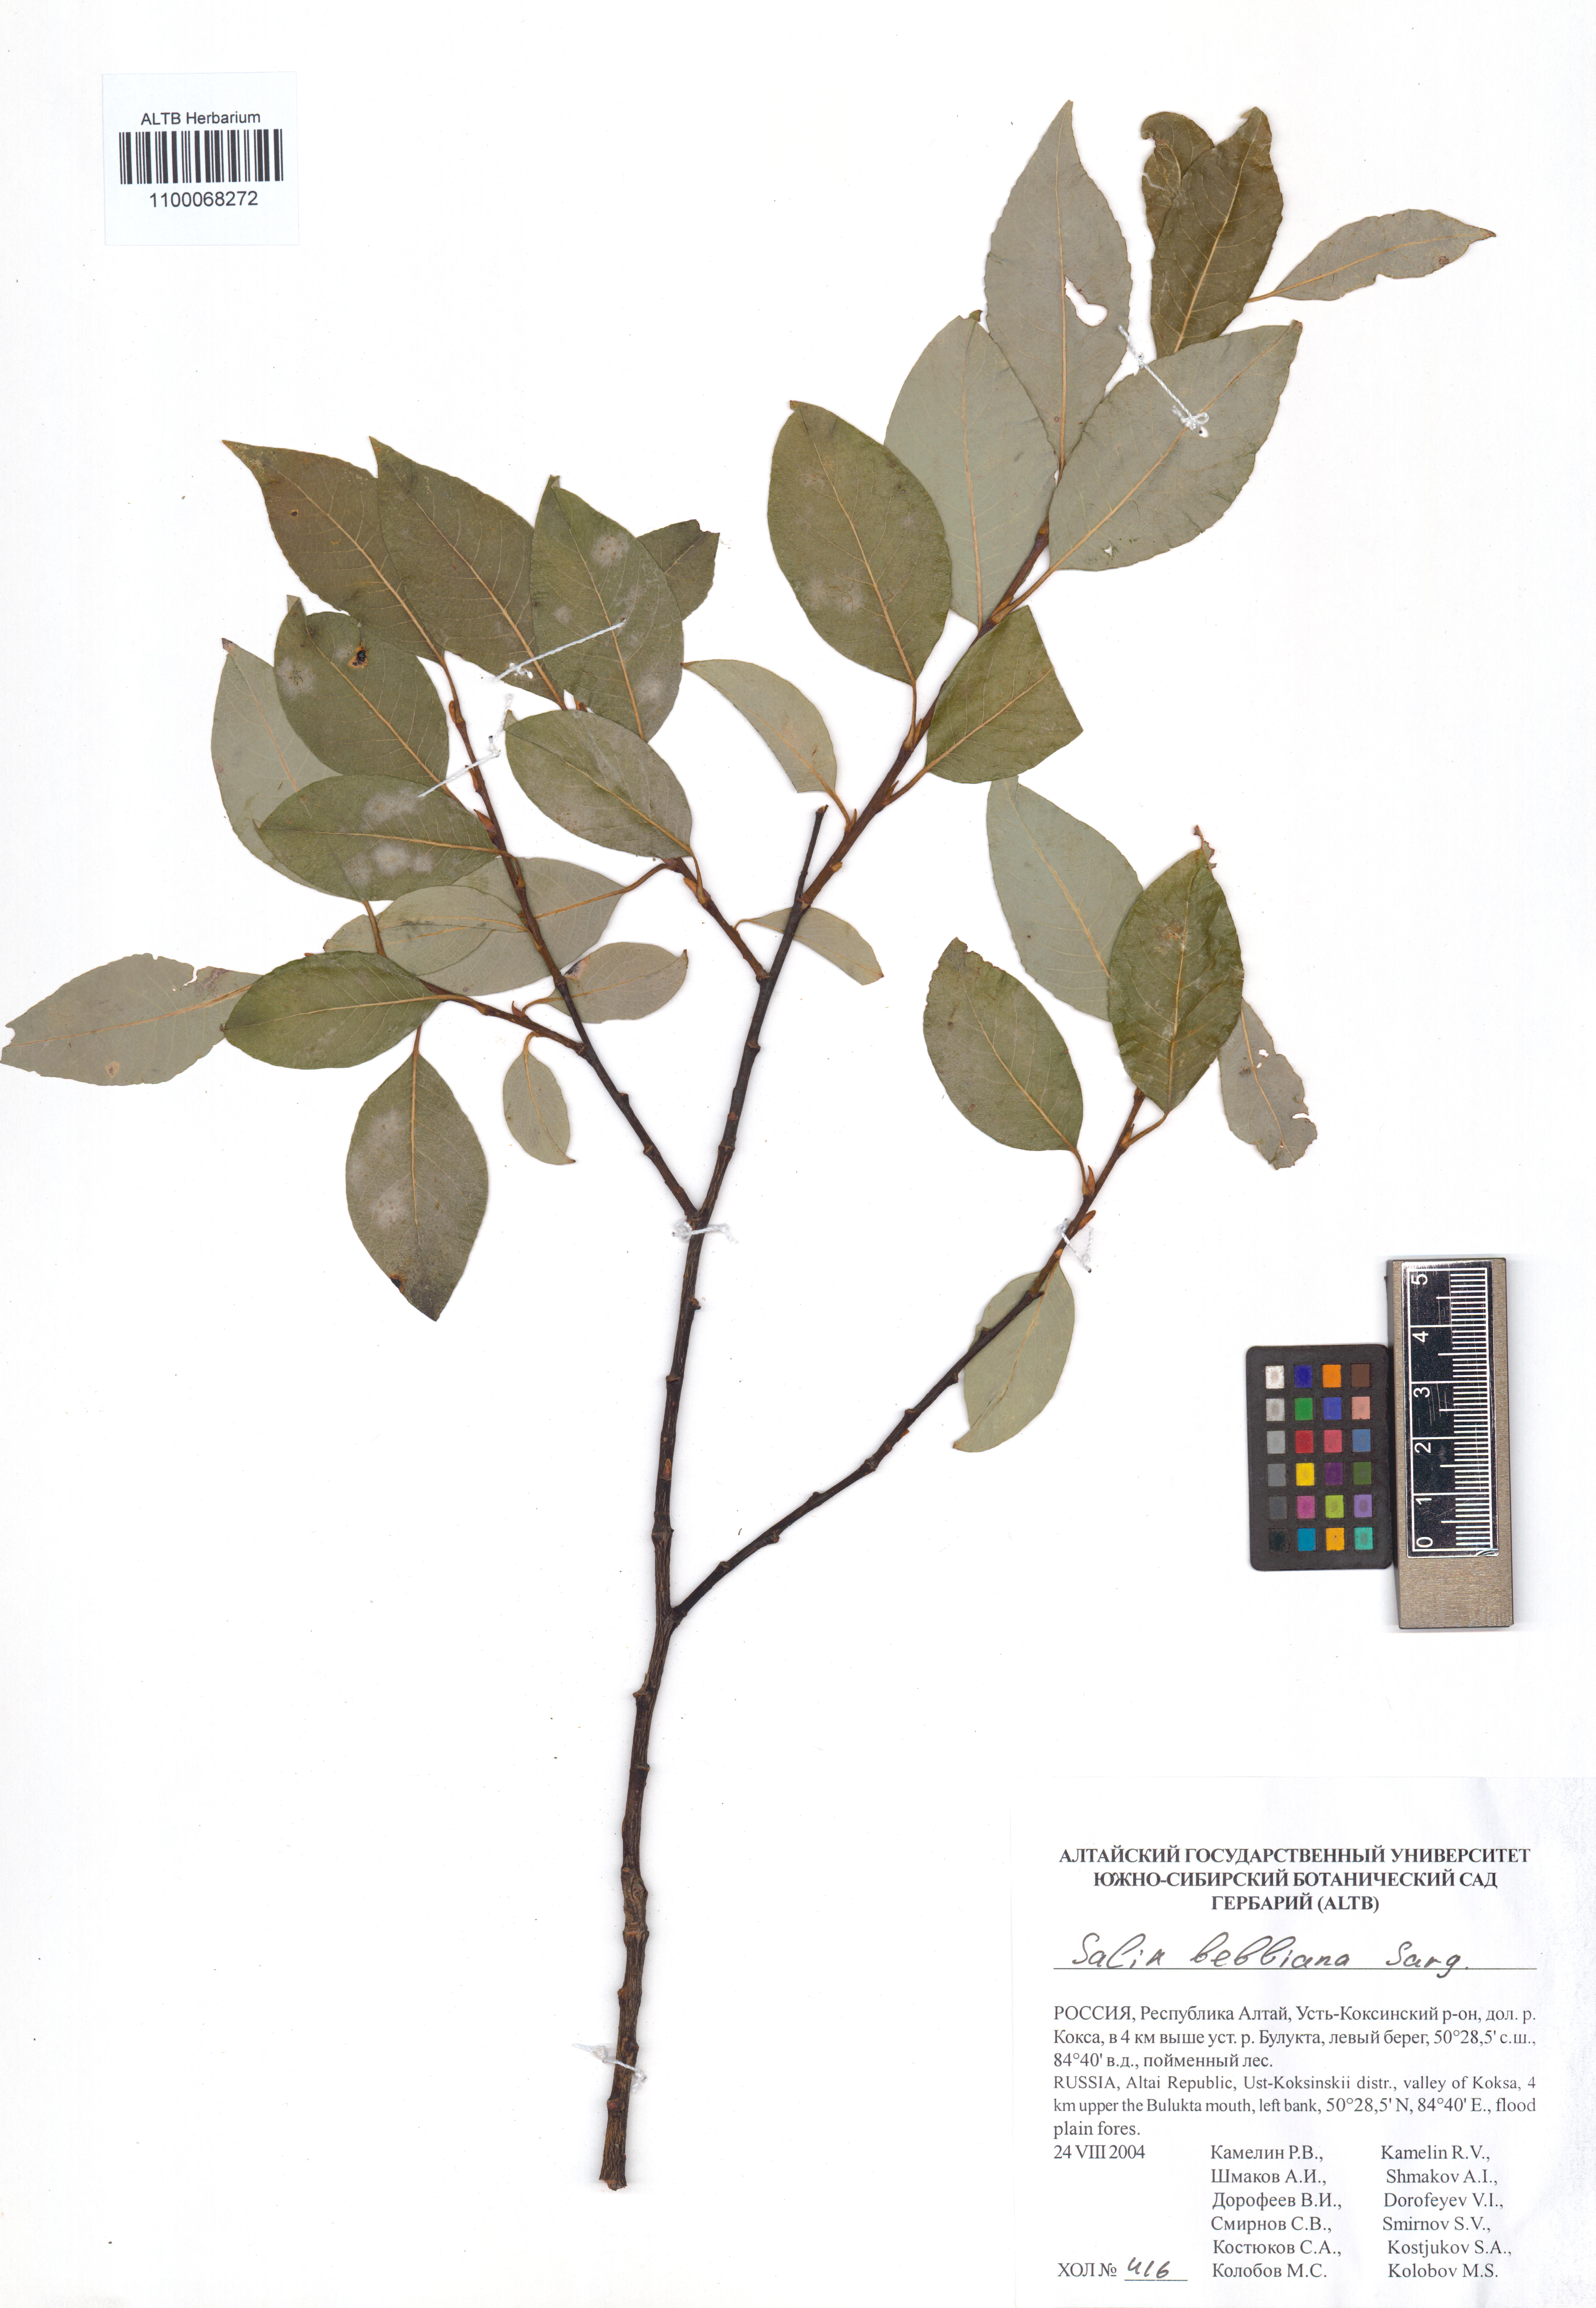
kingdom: Plantae
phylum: Tracheophyta
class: Magnoliopsida
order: Malpighiales
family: Salicaceae
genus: Salix
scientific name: Salix bebbiana
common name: Bebb's willow
